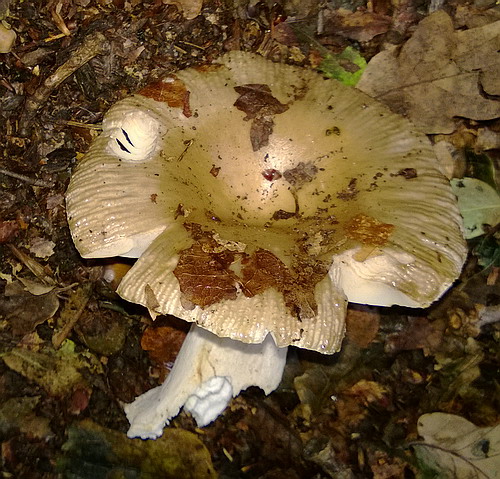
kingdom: Fungi
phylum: Basidiomycota
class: Agaricomycetes
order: Russulales
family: Russulaceae
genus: Russula
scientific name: Russula amoenolens
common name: skarp kam-skørhat
